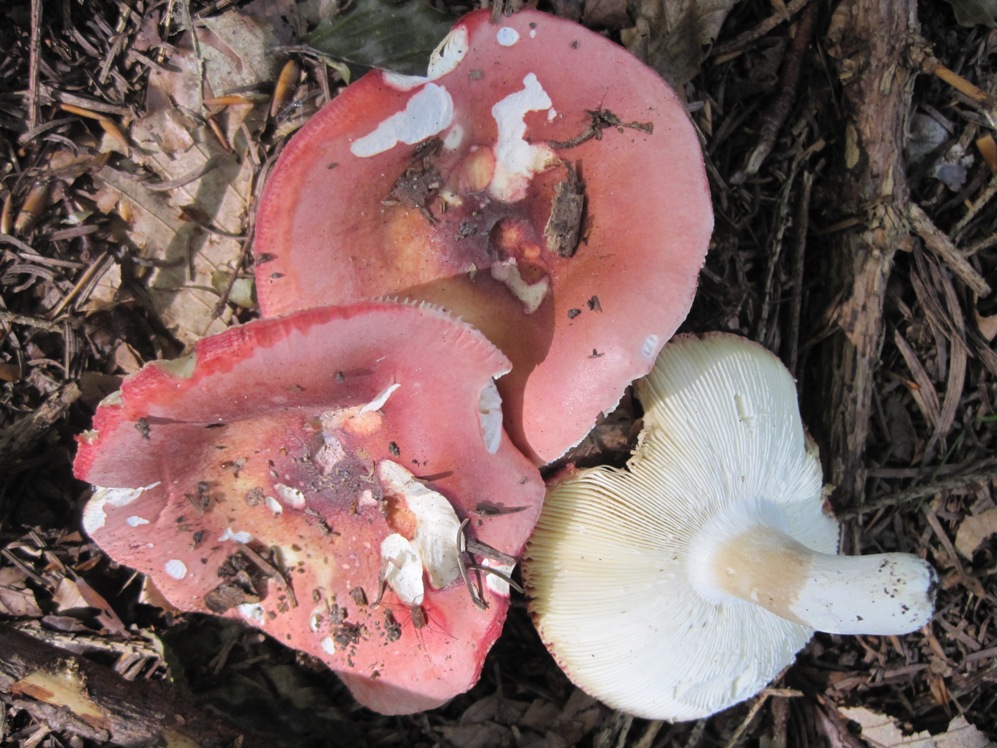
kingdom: Fungi
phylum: Basidiomycota
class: Agaricomycetes
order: Russulales
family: Russulaceae
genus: Russula
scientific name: Russula aurora
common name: rosa skørhat
